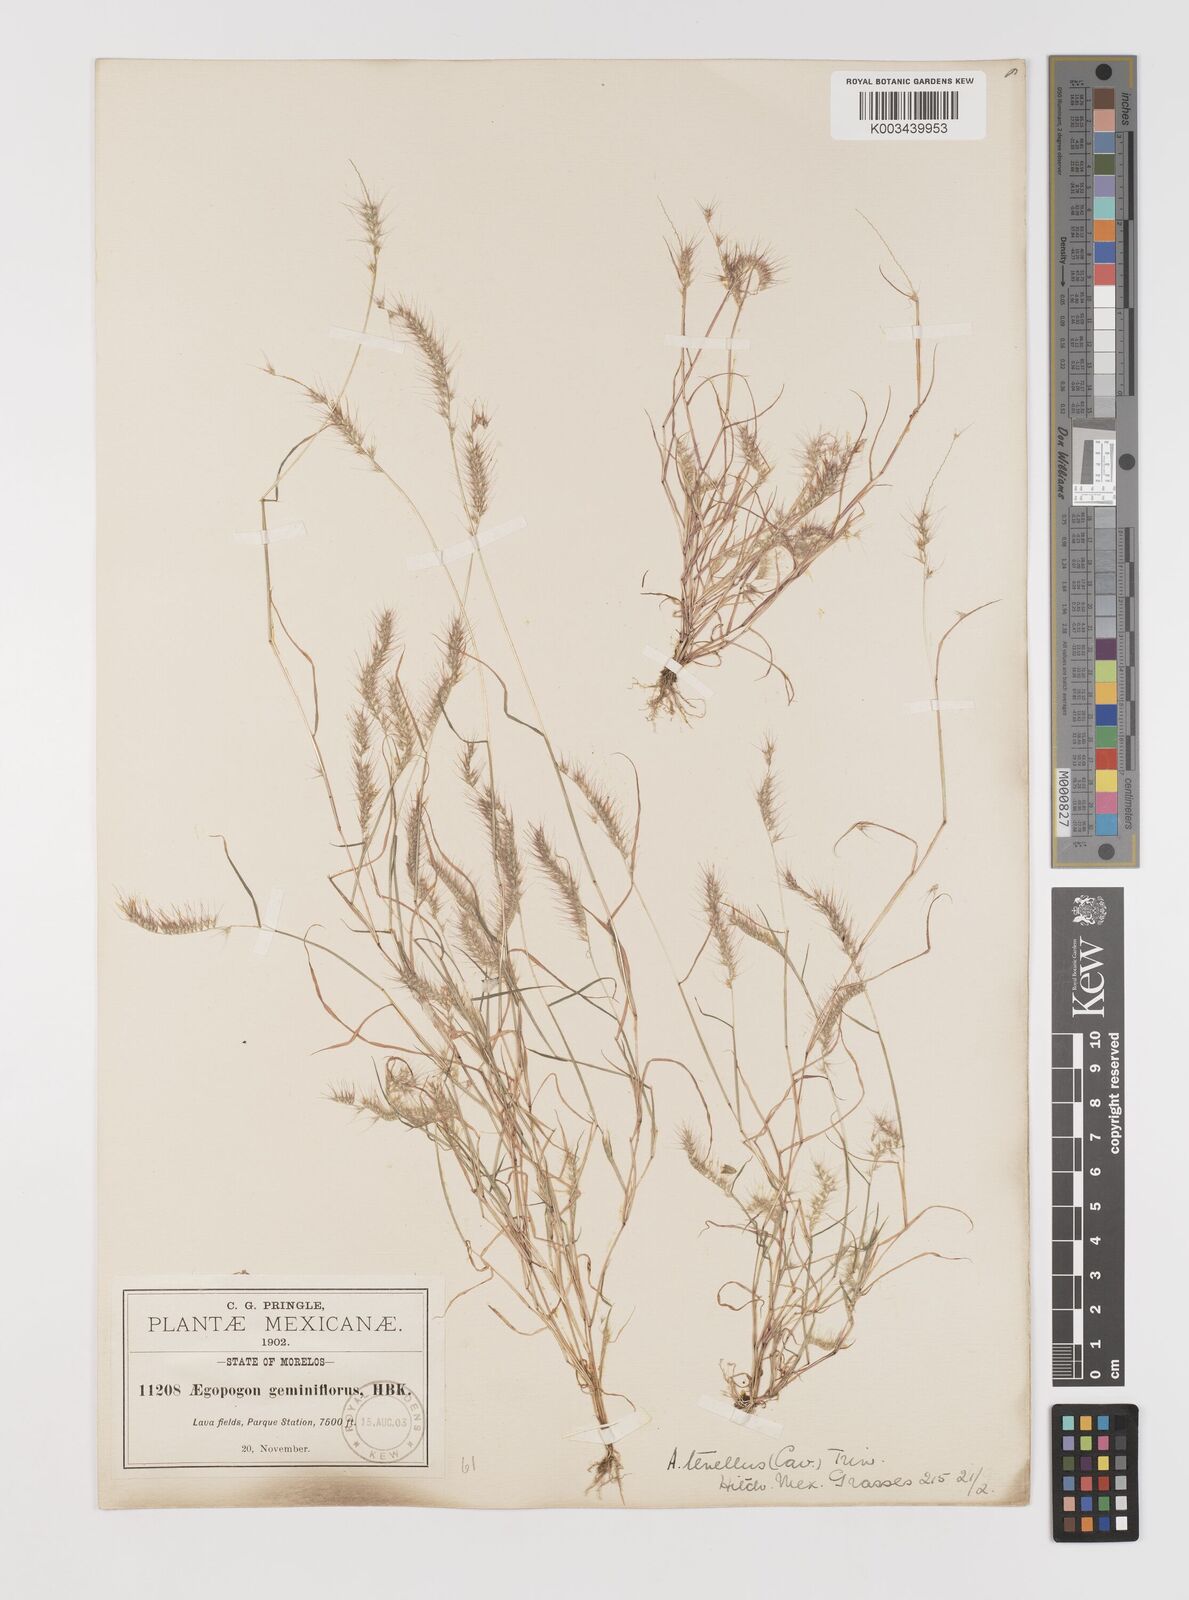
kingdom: Plantae
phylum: Tracheophyta
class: Liliopsida
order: Poales
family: Poaceae
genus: Muhlenbergia
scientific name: Muhlenbergia uniseta
